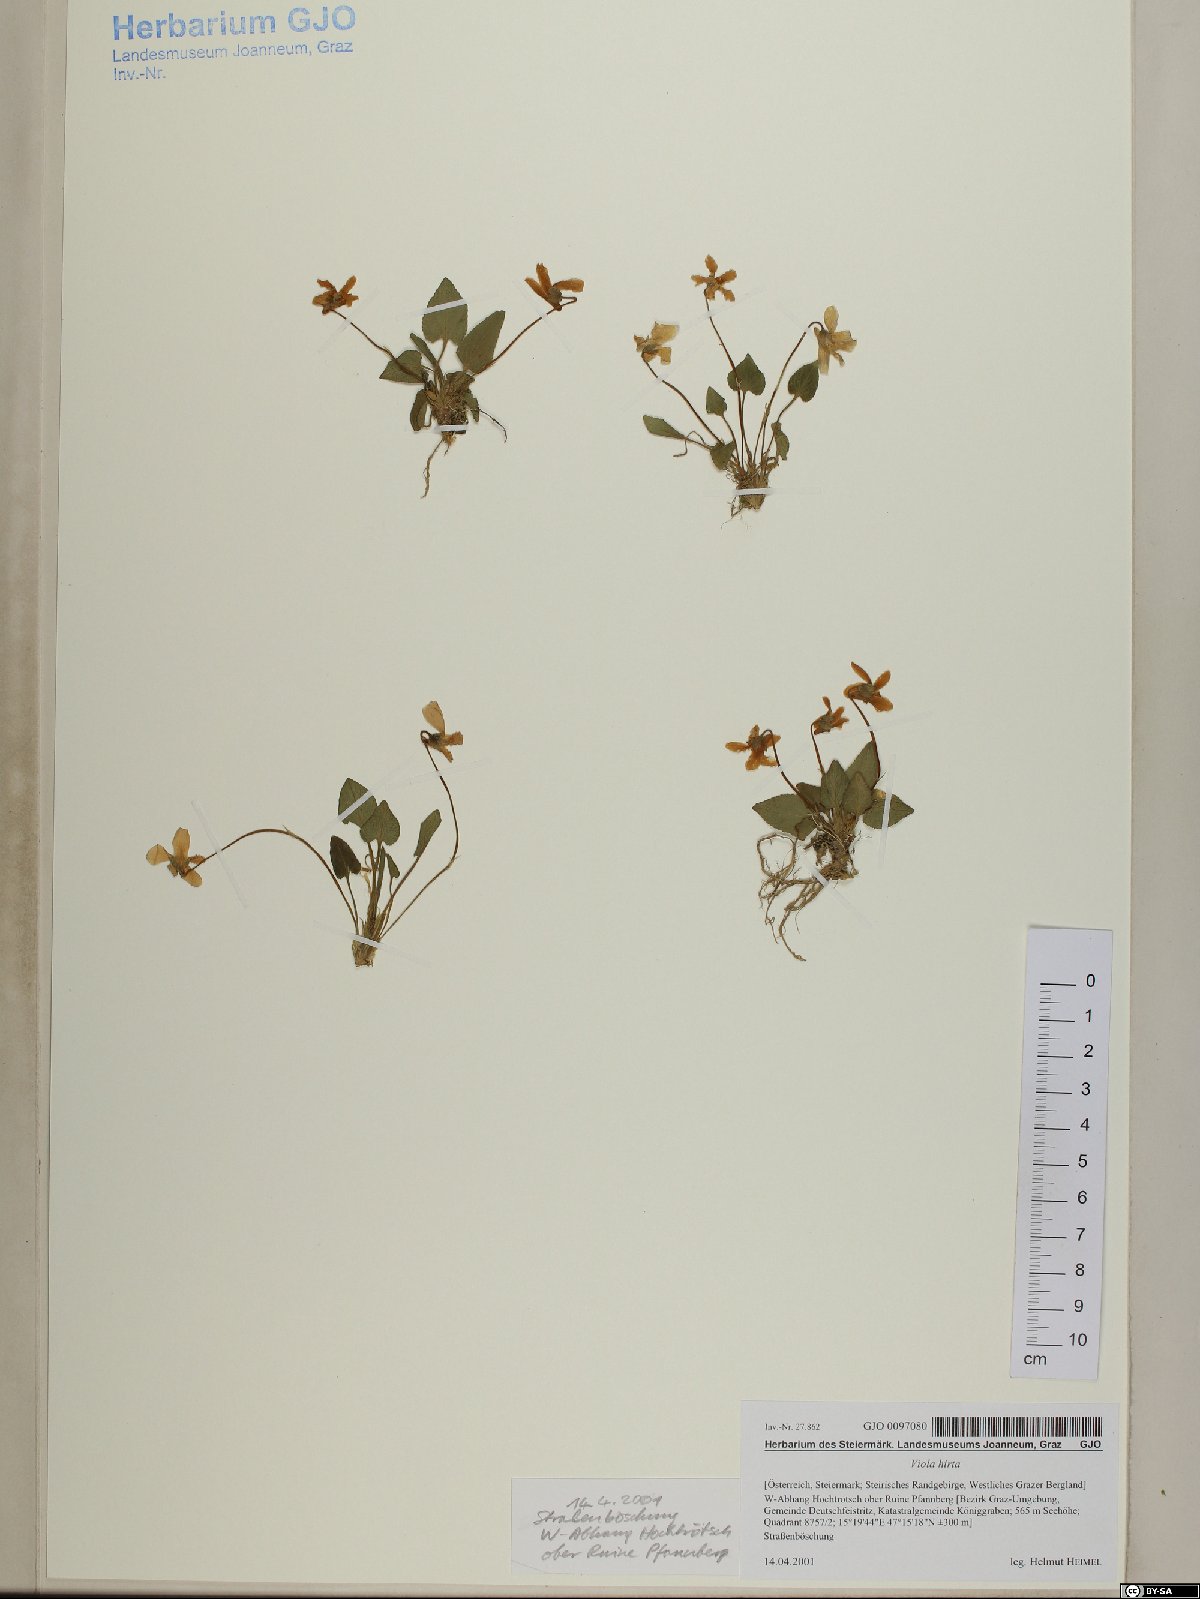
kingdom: Plantae
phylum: Tracheophyta
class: Magnoliopsida
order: Malpighiales
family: Violaceae
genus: Viola
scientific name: Viola hirta
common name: Hairy violet
